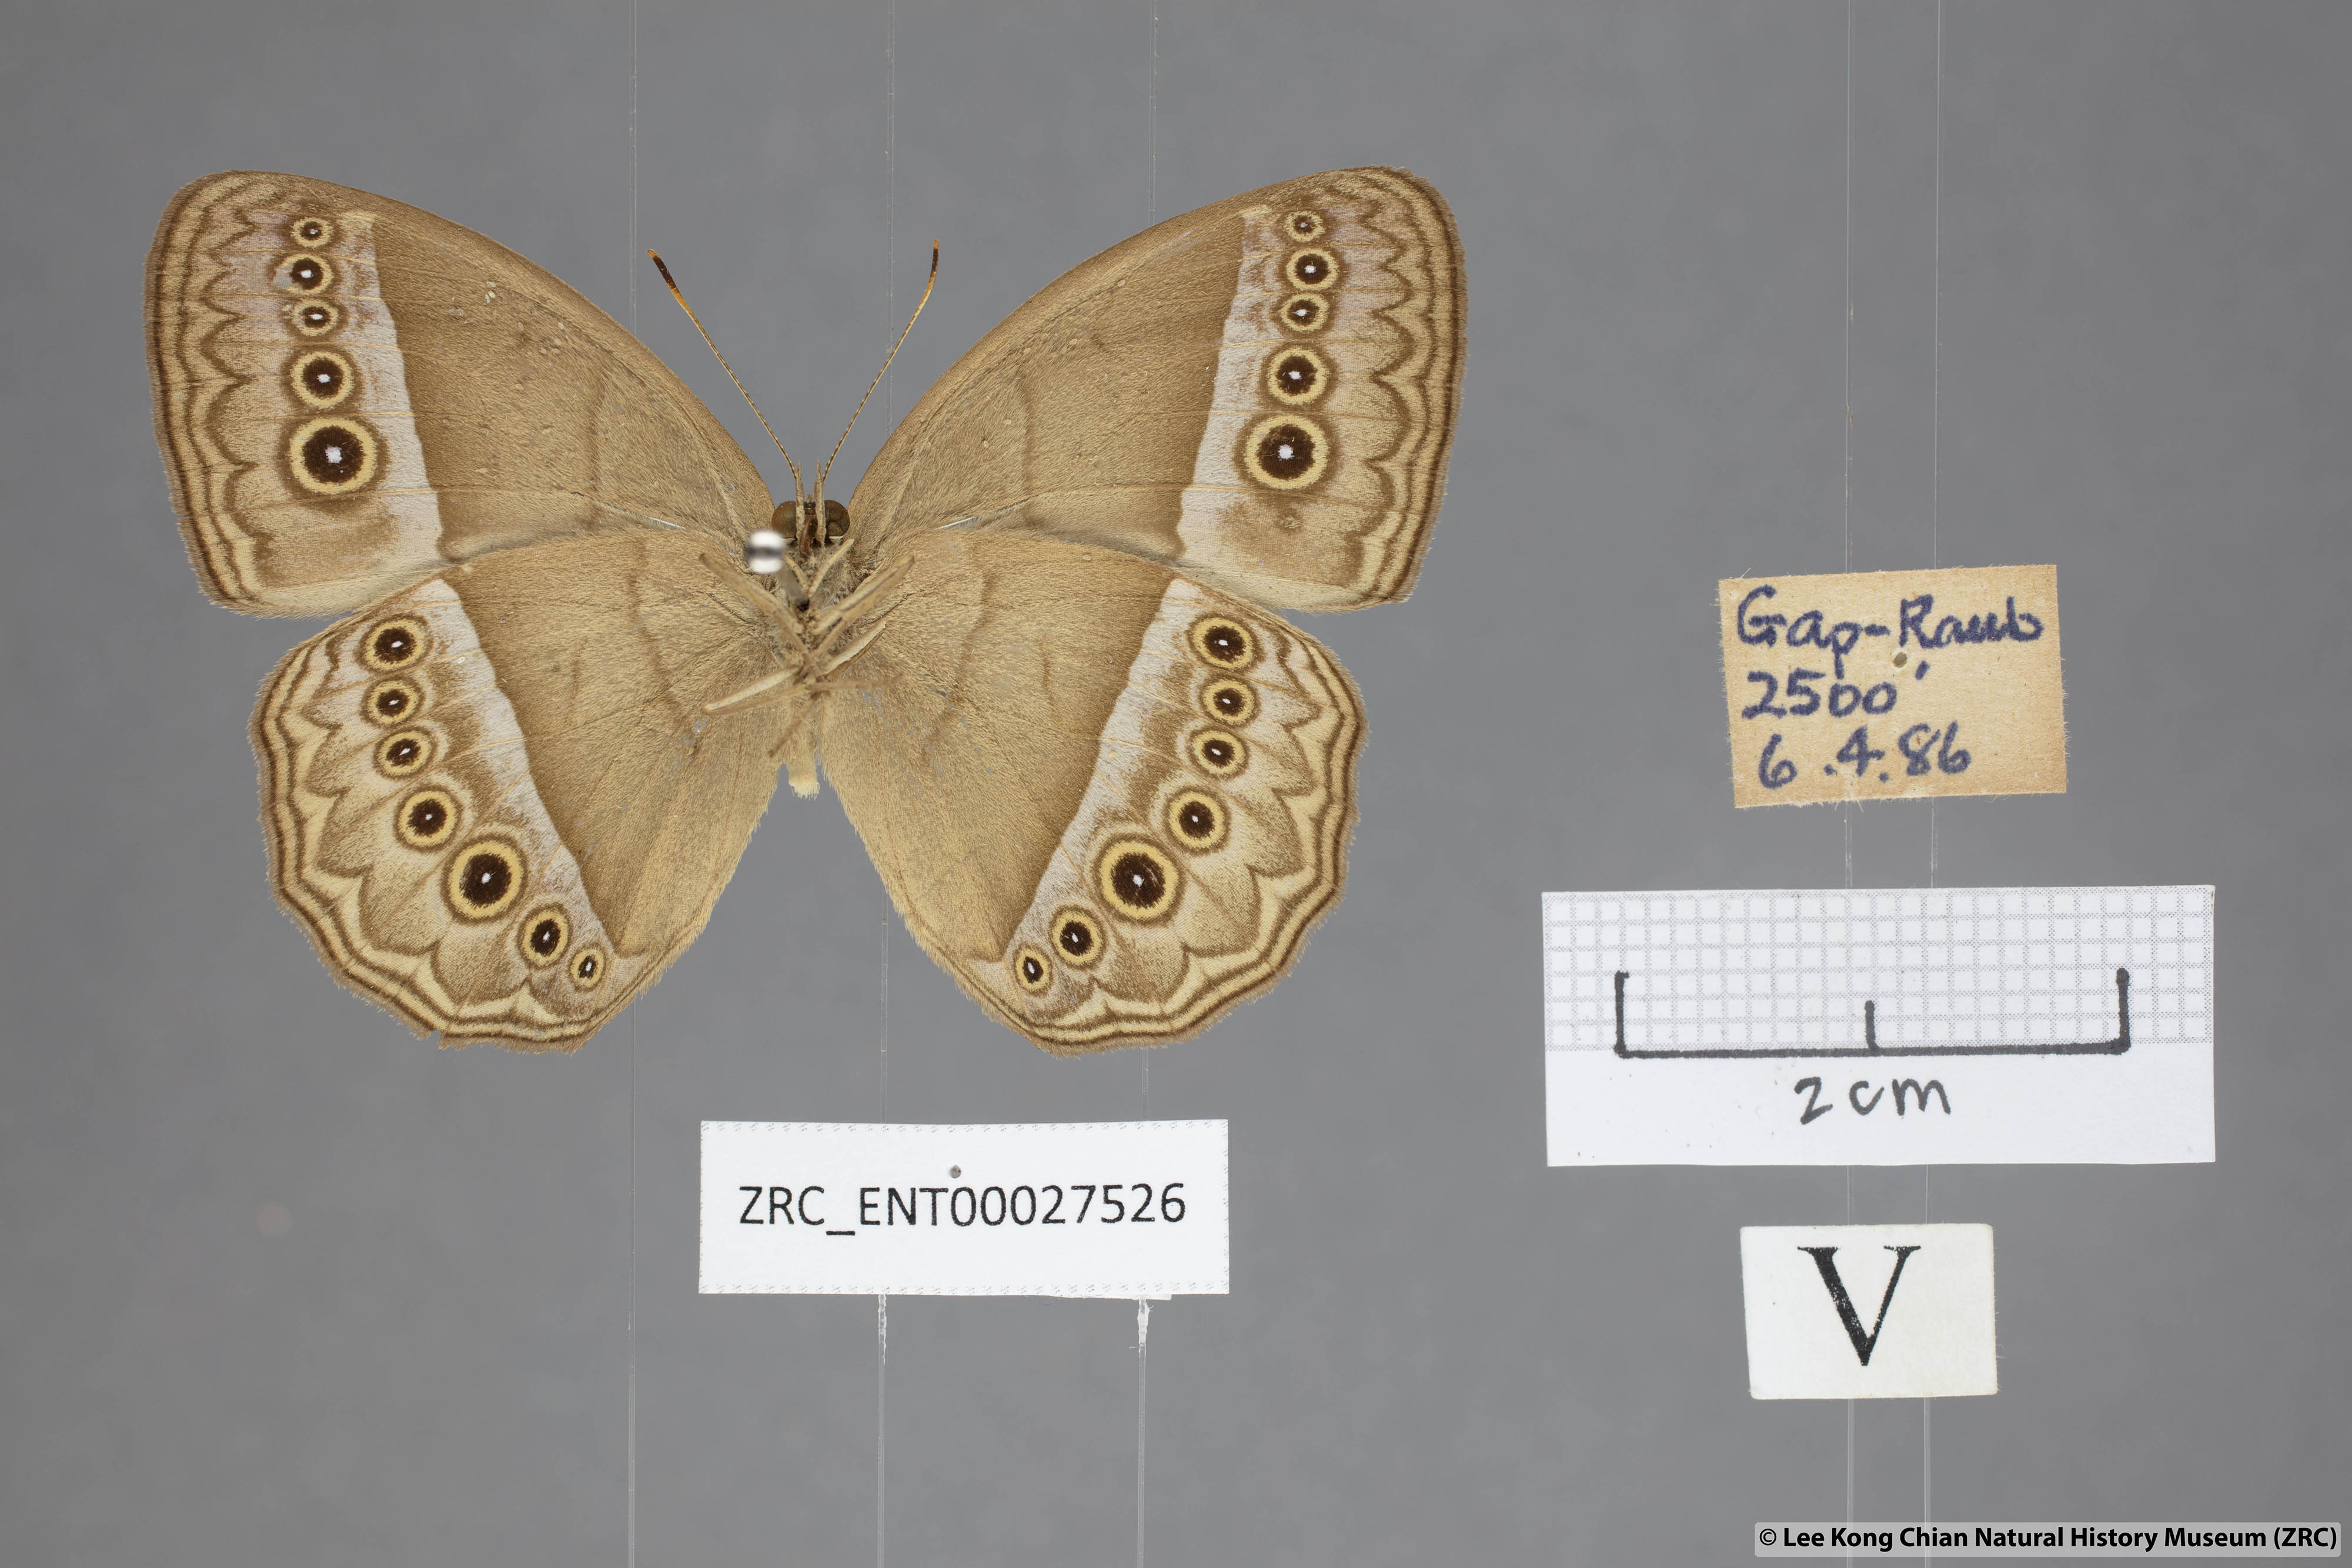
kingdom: Animalia
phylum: Arthropoda
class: Insecta
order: Lepidoptera
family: Nymphalidae
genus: Mycalesis
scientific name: Mycalesis orseis
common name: Purple bushbrown
